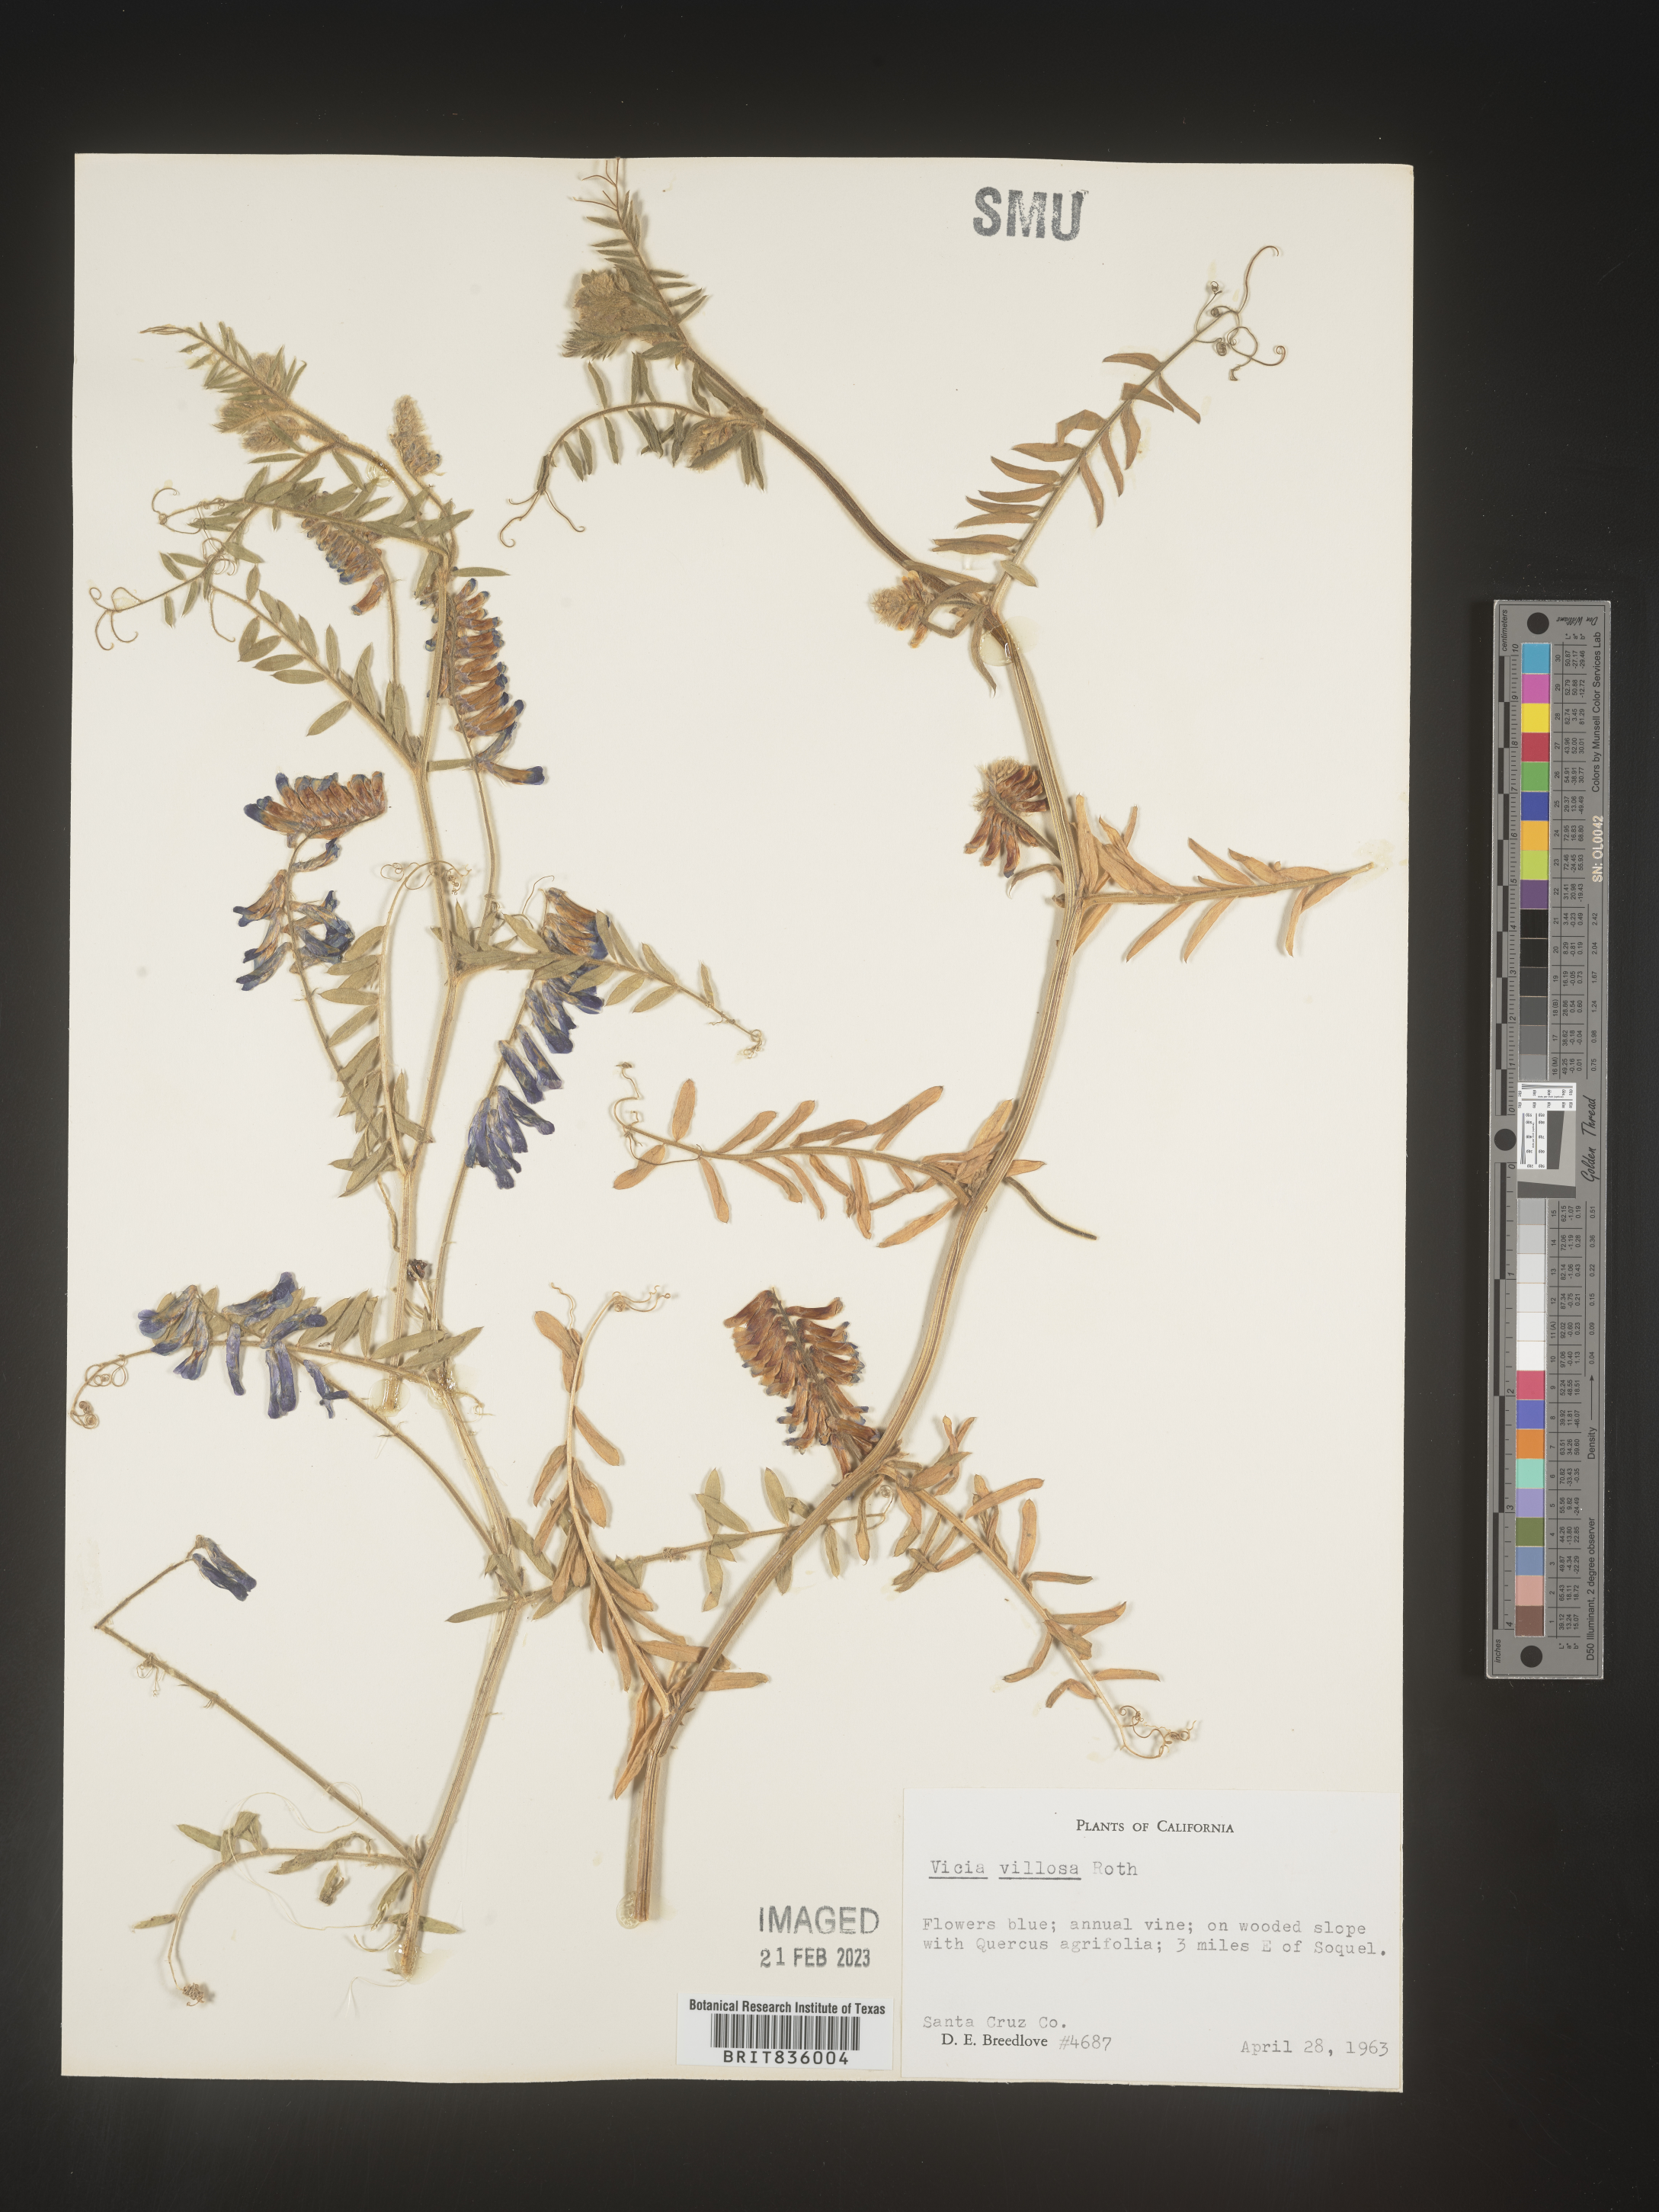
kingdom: Plantae
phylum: Tracheophyta
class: Magnoliopsida
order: Fabales
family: Fabaceae
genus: Vicia
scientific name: Vicia villosa
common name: Fodder vetch
